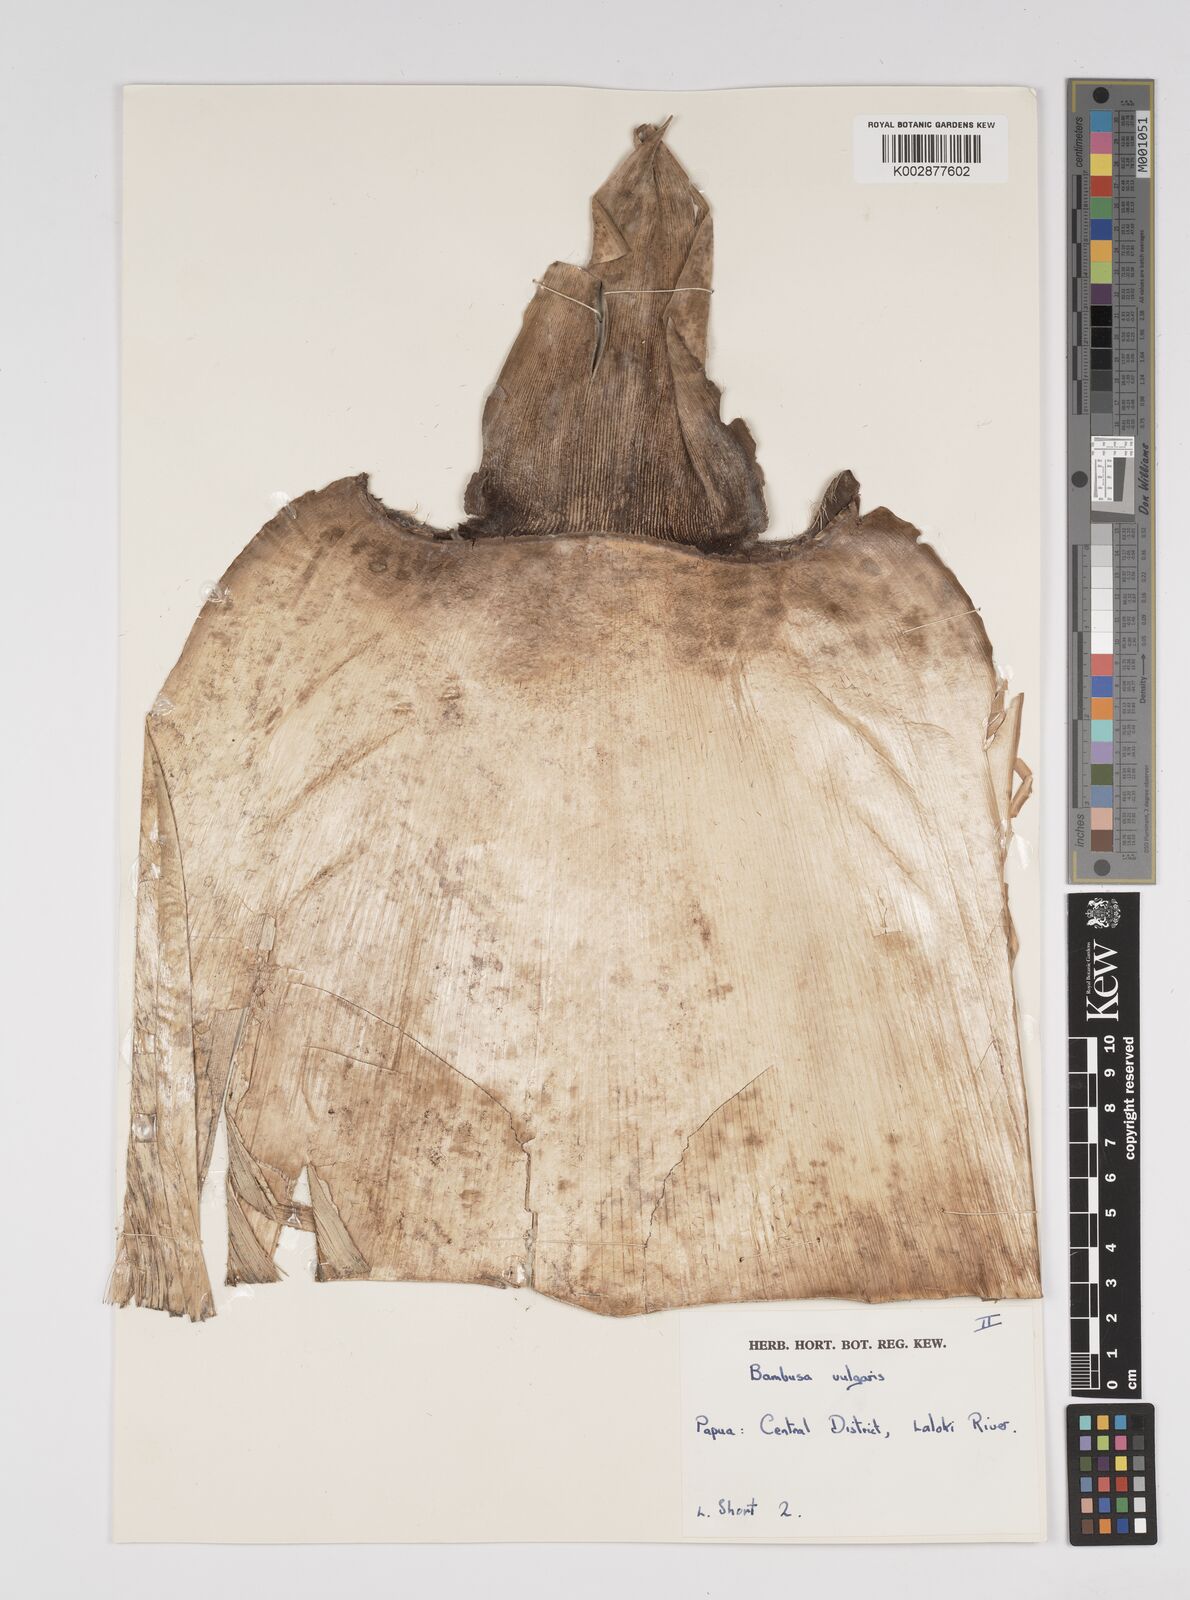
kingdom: Plantae
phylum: Tracheophyta
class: Liliopsida
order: Poales
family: Poaceae
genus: Bambusa
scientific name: Bambusa balcooa
